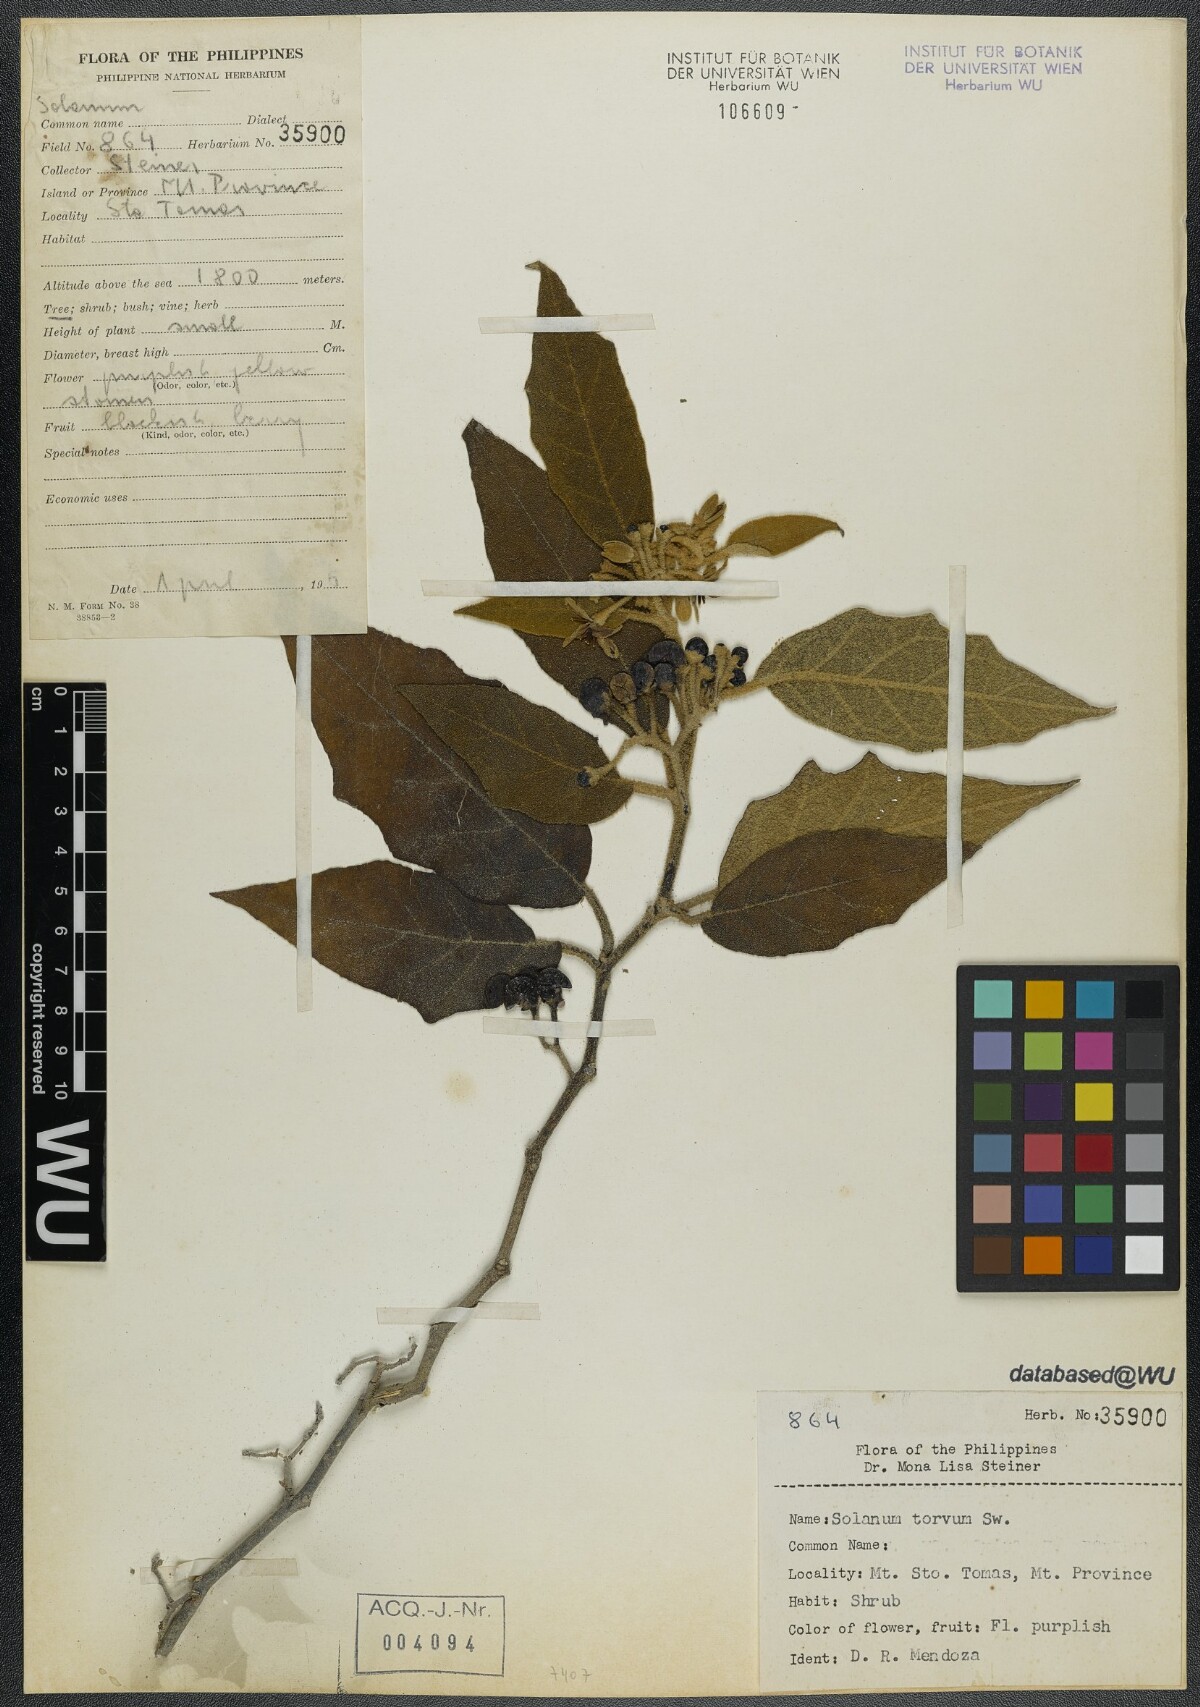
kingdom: Plantae
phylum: Tracheophyta
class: Magnoliopsida
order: Solanales
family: Solanaceae
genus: Solanum
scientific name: Solanum torvum
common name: Turkey berry
